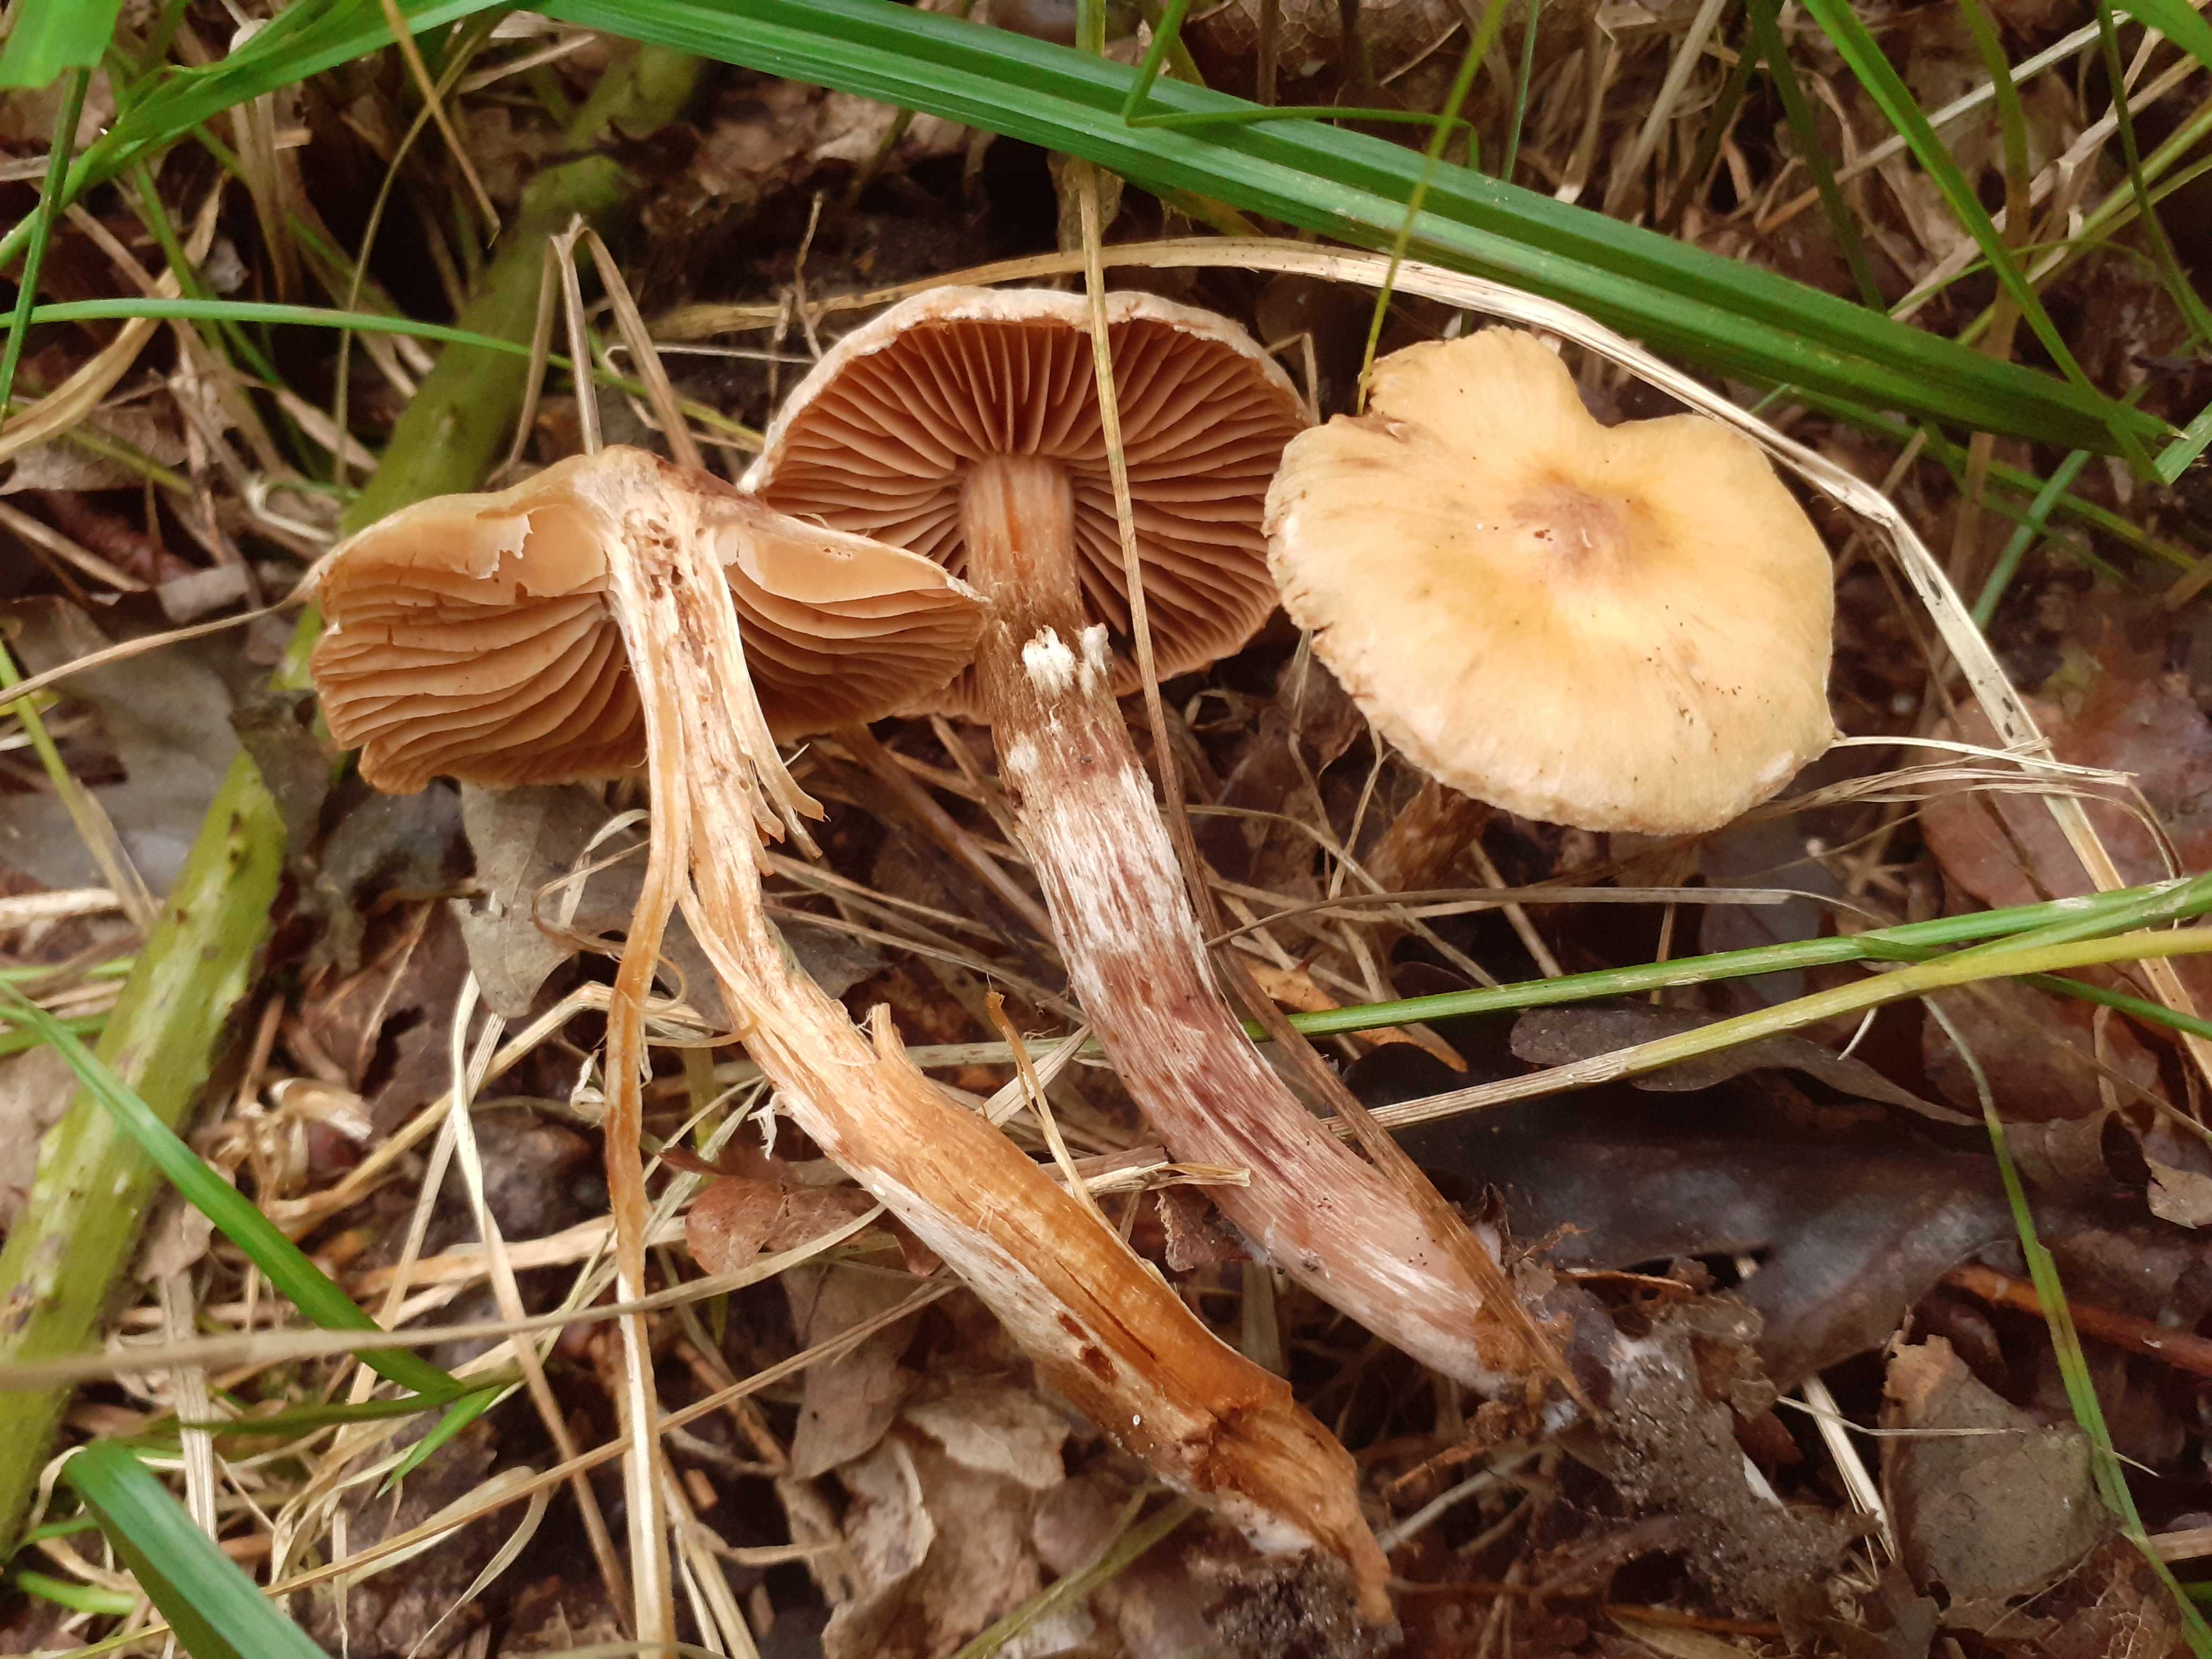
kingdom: Fungi
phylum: Basidiomycota
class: Agaricomycetes
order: Agaricales
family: Cortinariaceae
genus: Cortinarius
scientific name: Cortinarius luridus
